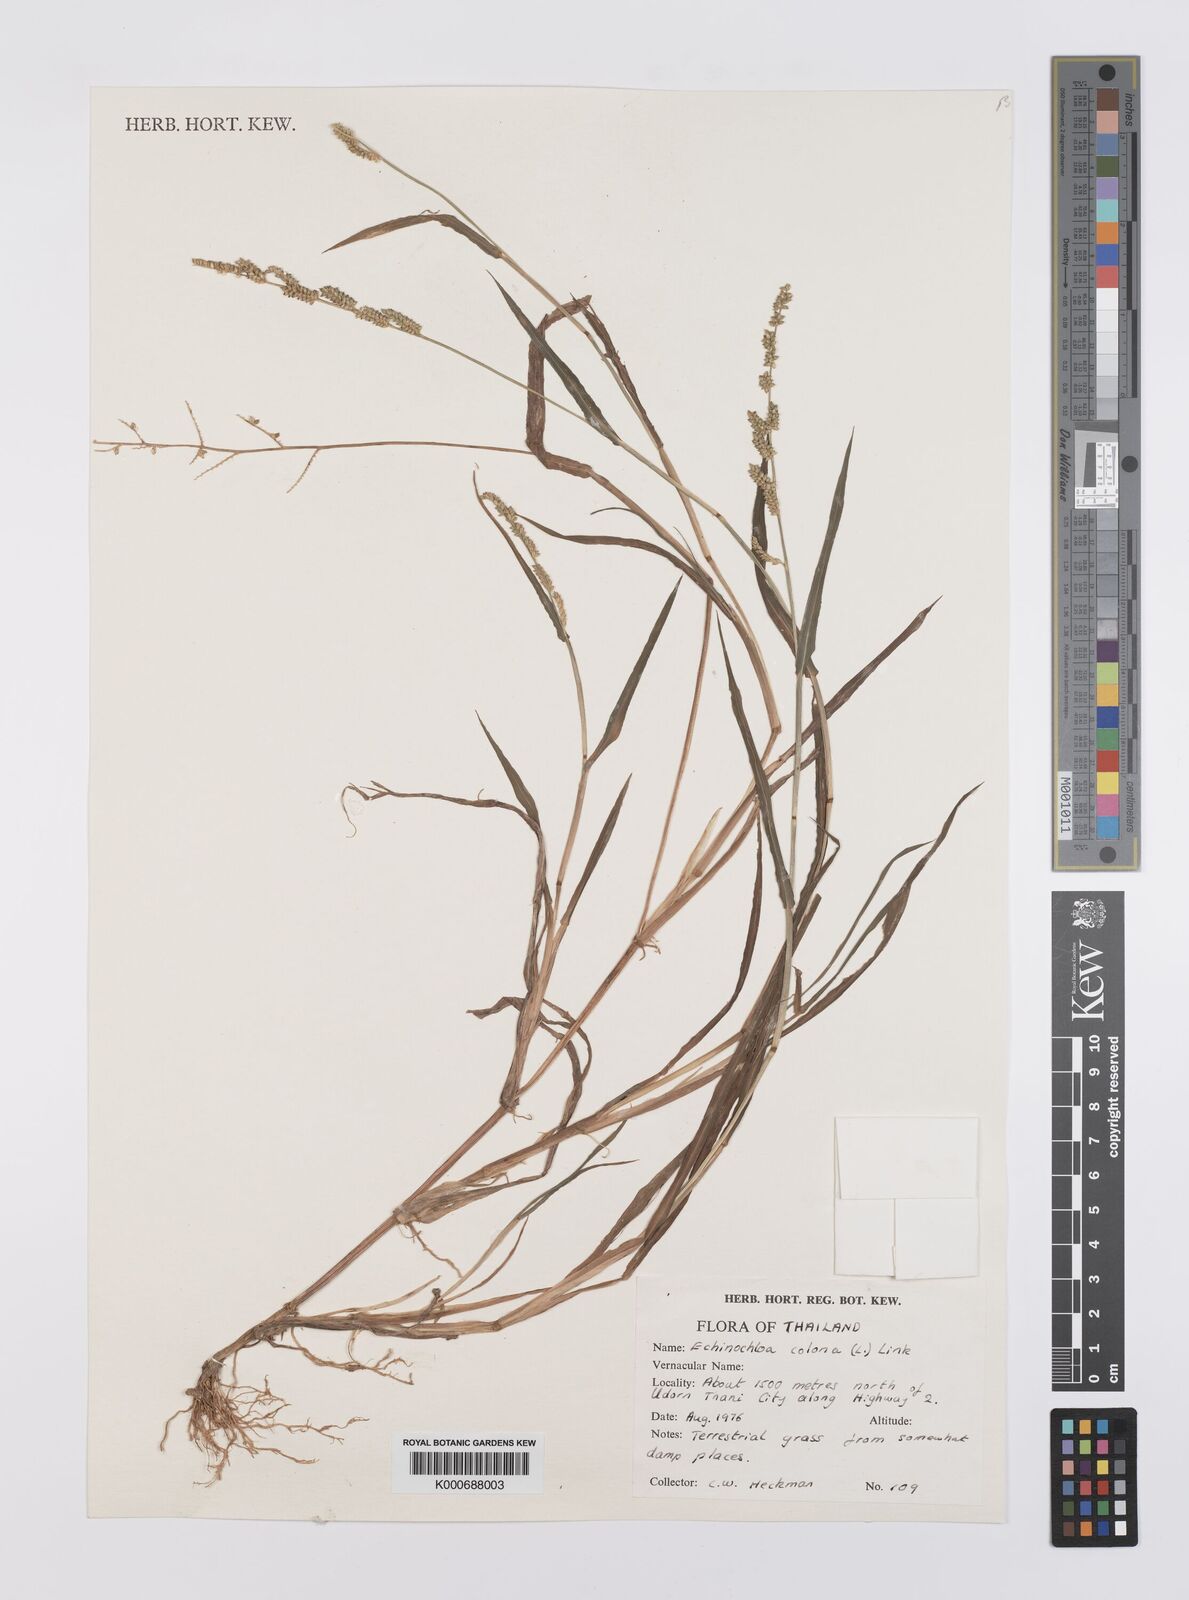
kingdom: Plantae
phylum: Tracheophyta
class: Liliopsida
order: Poales
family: Poaceae
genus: Echinochloa
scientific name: Echinochloa colonum
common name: Jungle rice
